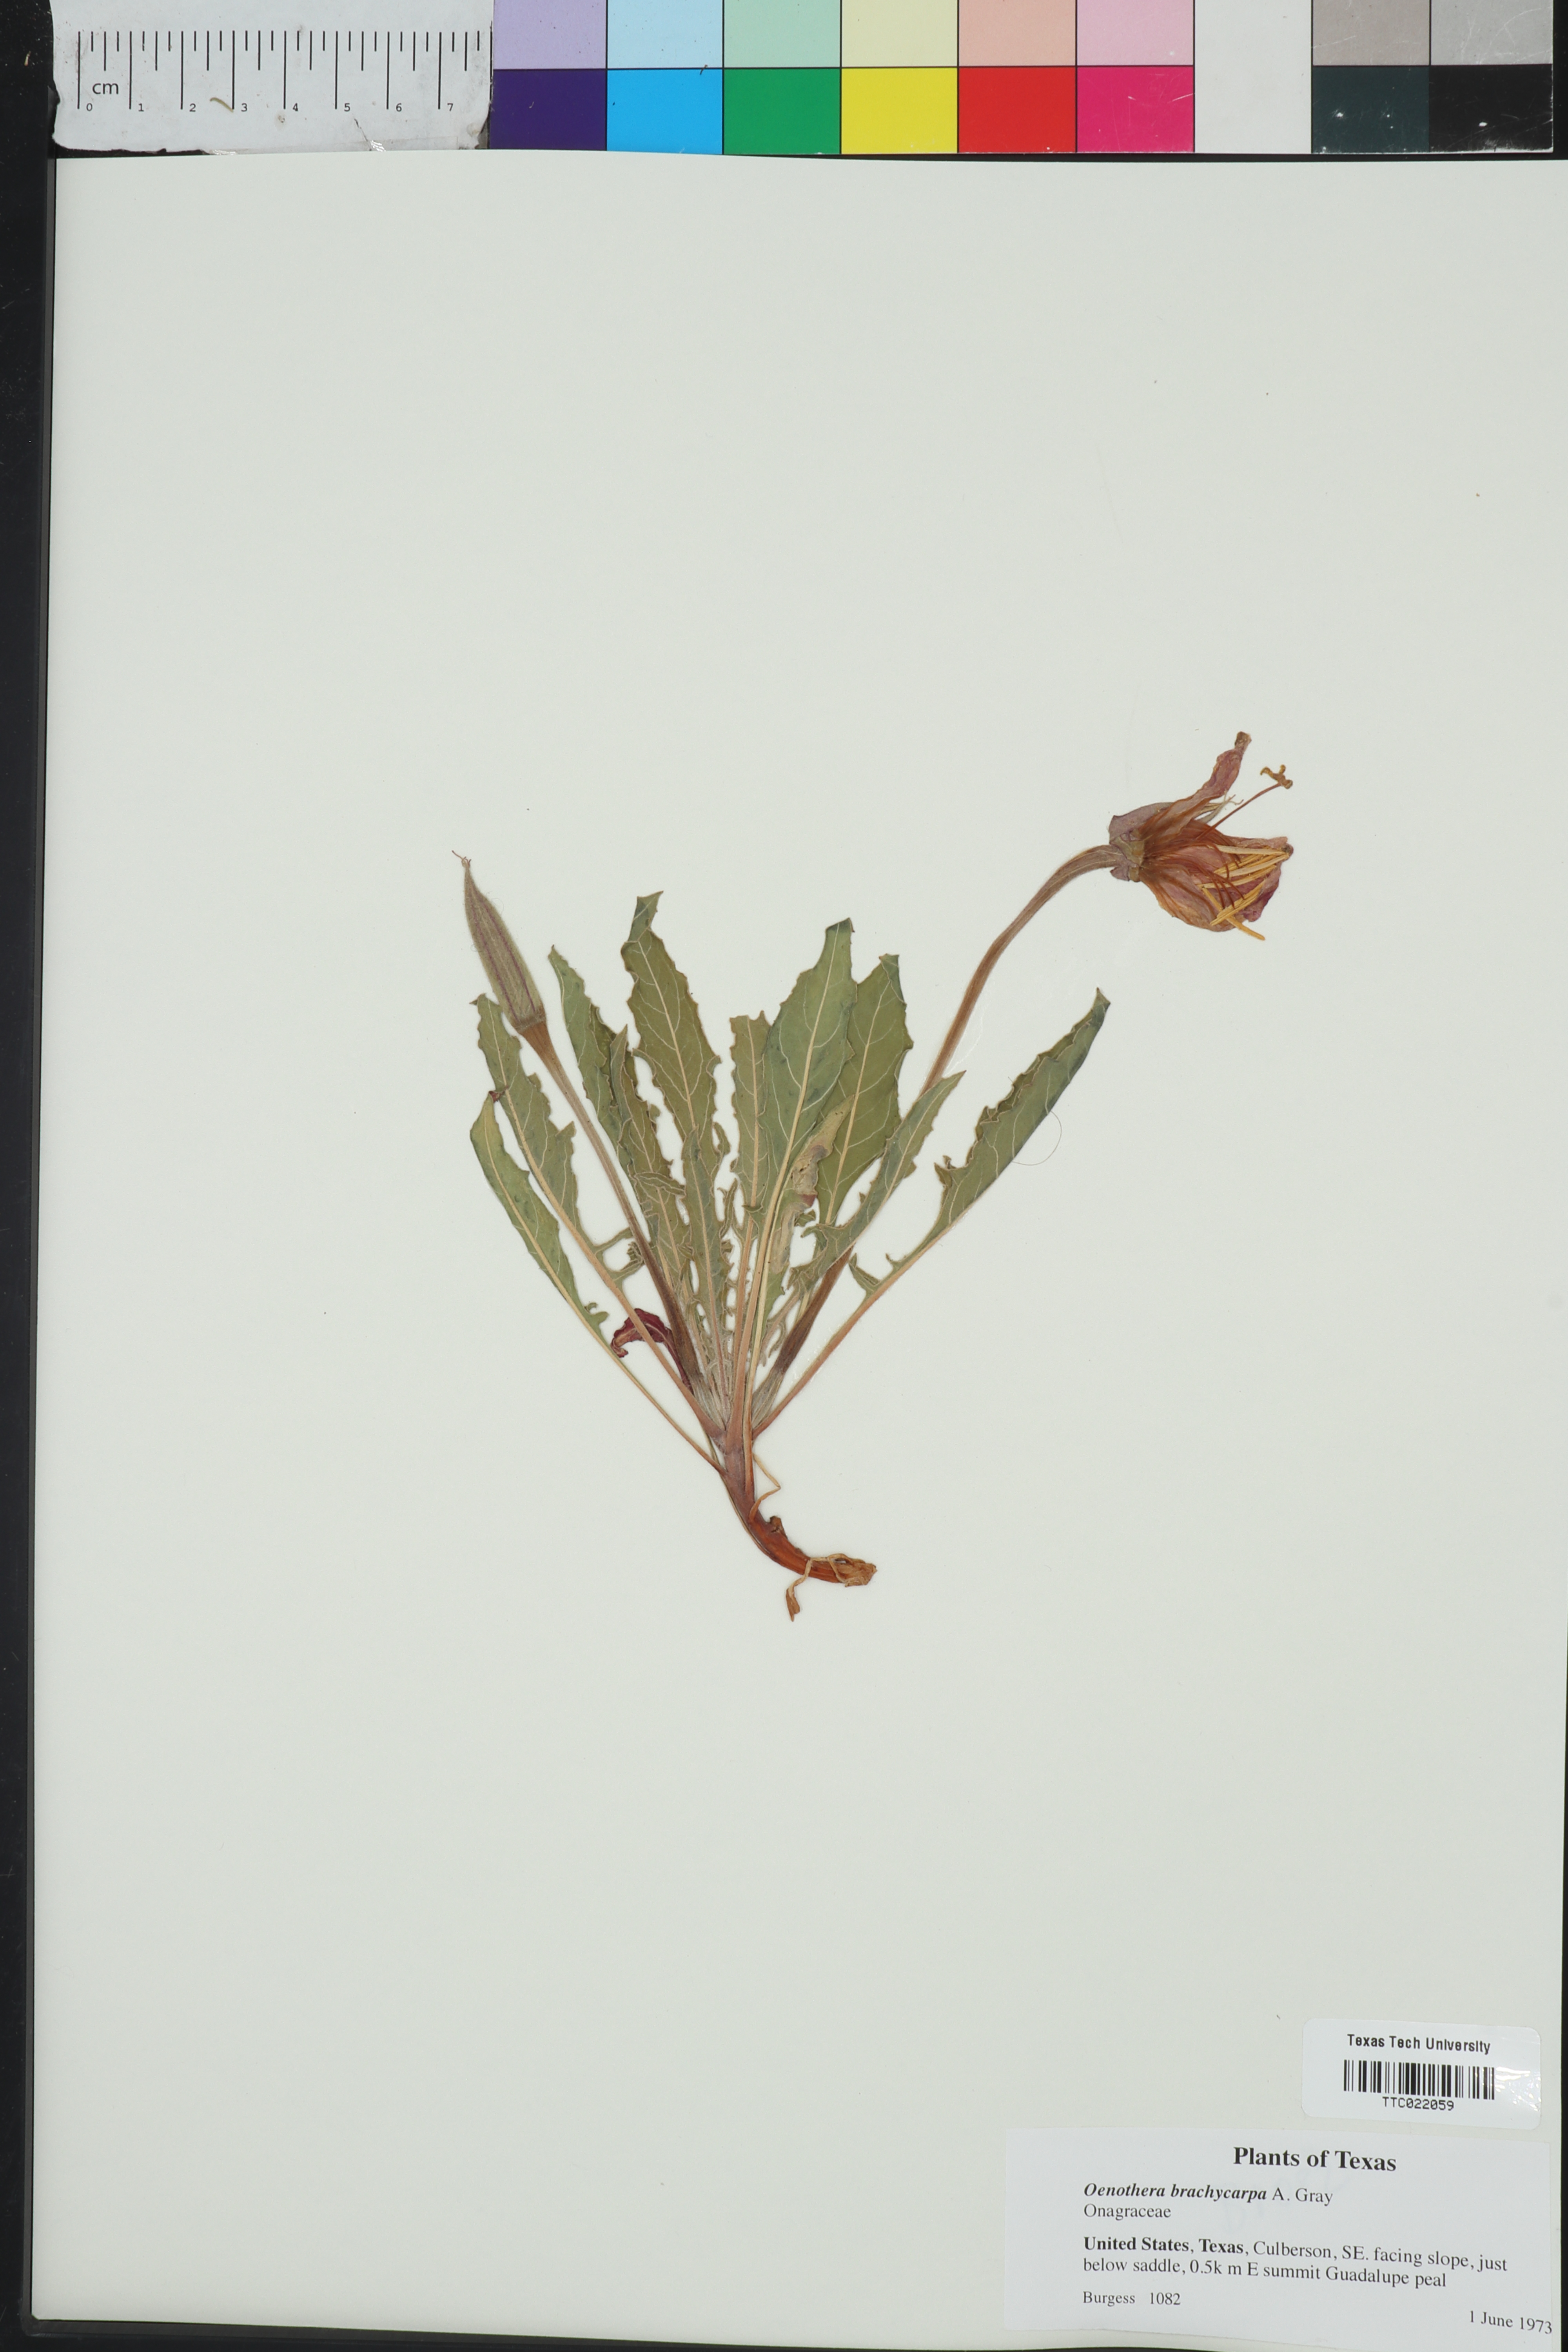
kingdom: Plantae
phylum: Tracheophyta
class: Magnoliopsida
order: Myrtales
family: Onagraceae
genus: Oenothera
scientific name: Oenothera brachycarpa
